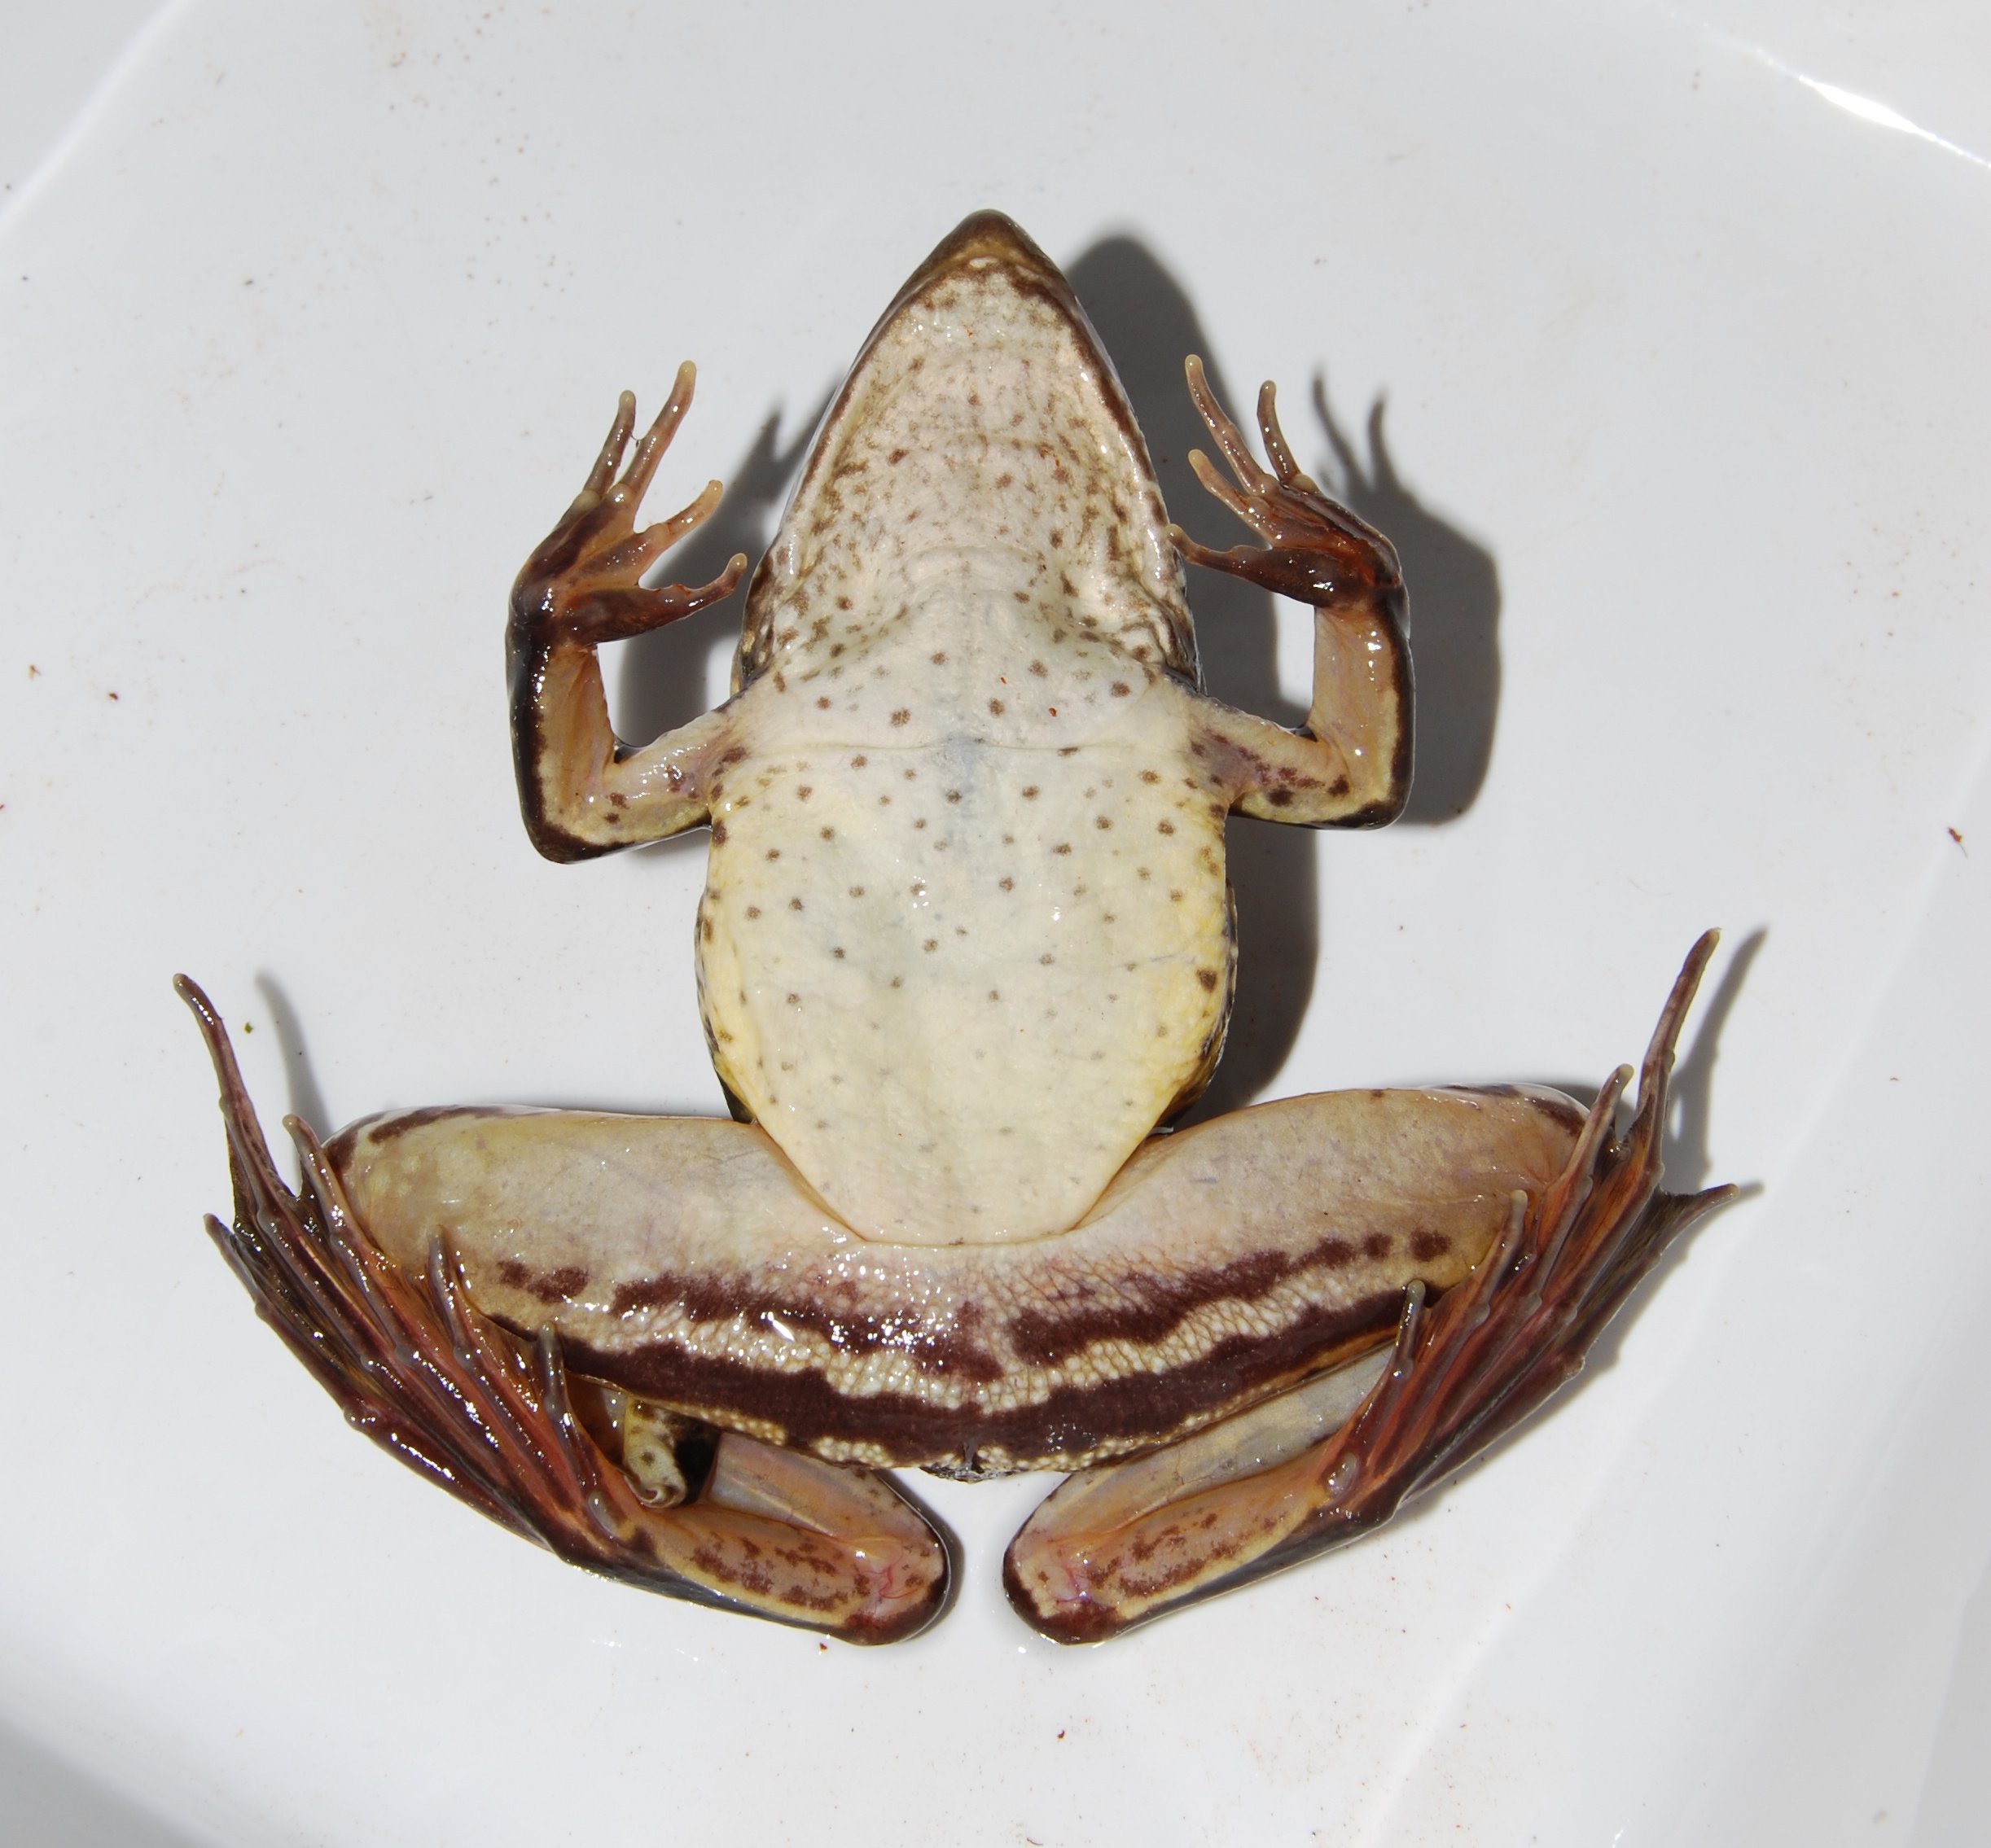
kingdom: Animalia
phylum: Chordata
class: Amphibia
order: Anura
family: Ptychadenidae
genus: Ptychadena
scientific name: Ptychadena subpunctata
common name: Bocage's grassland frog
